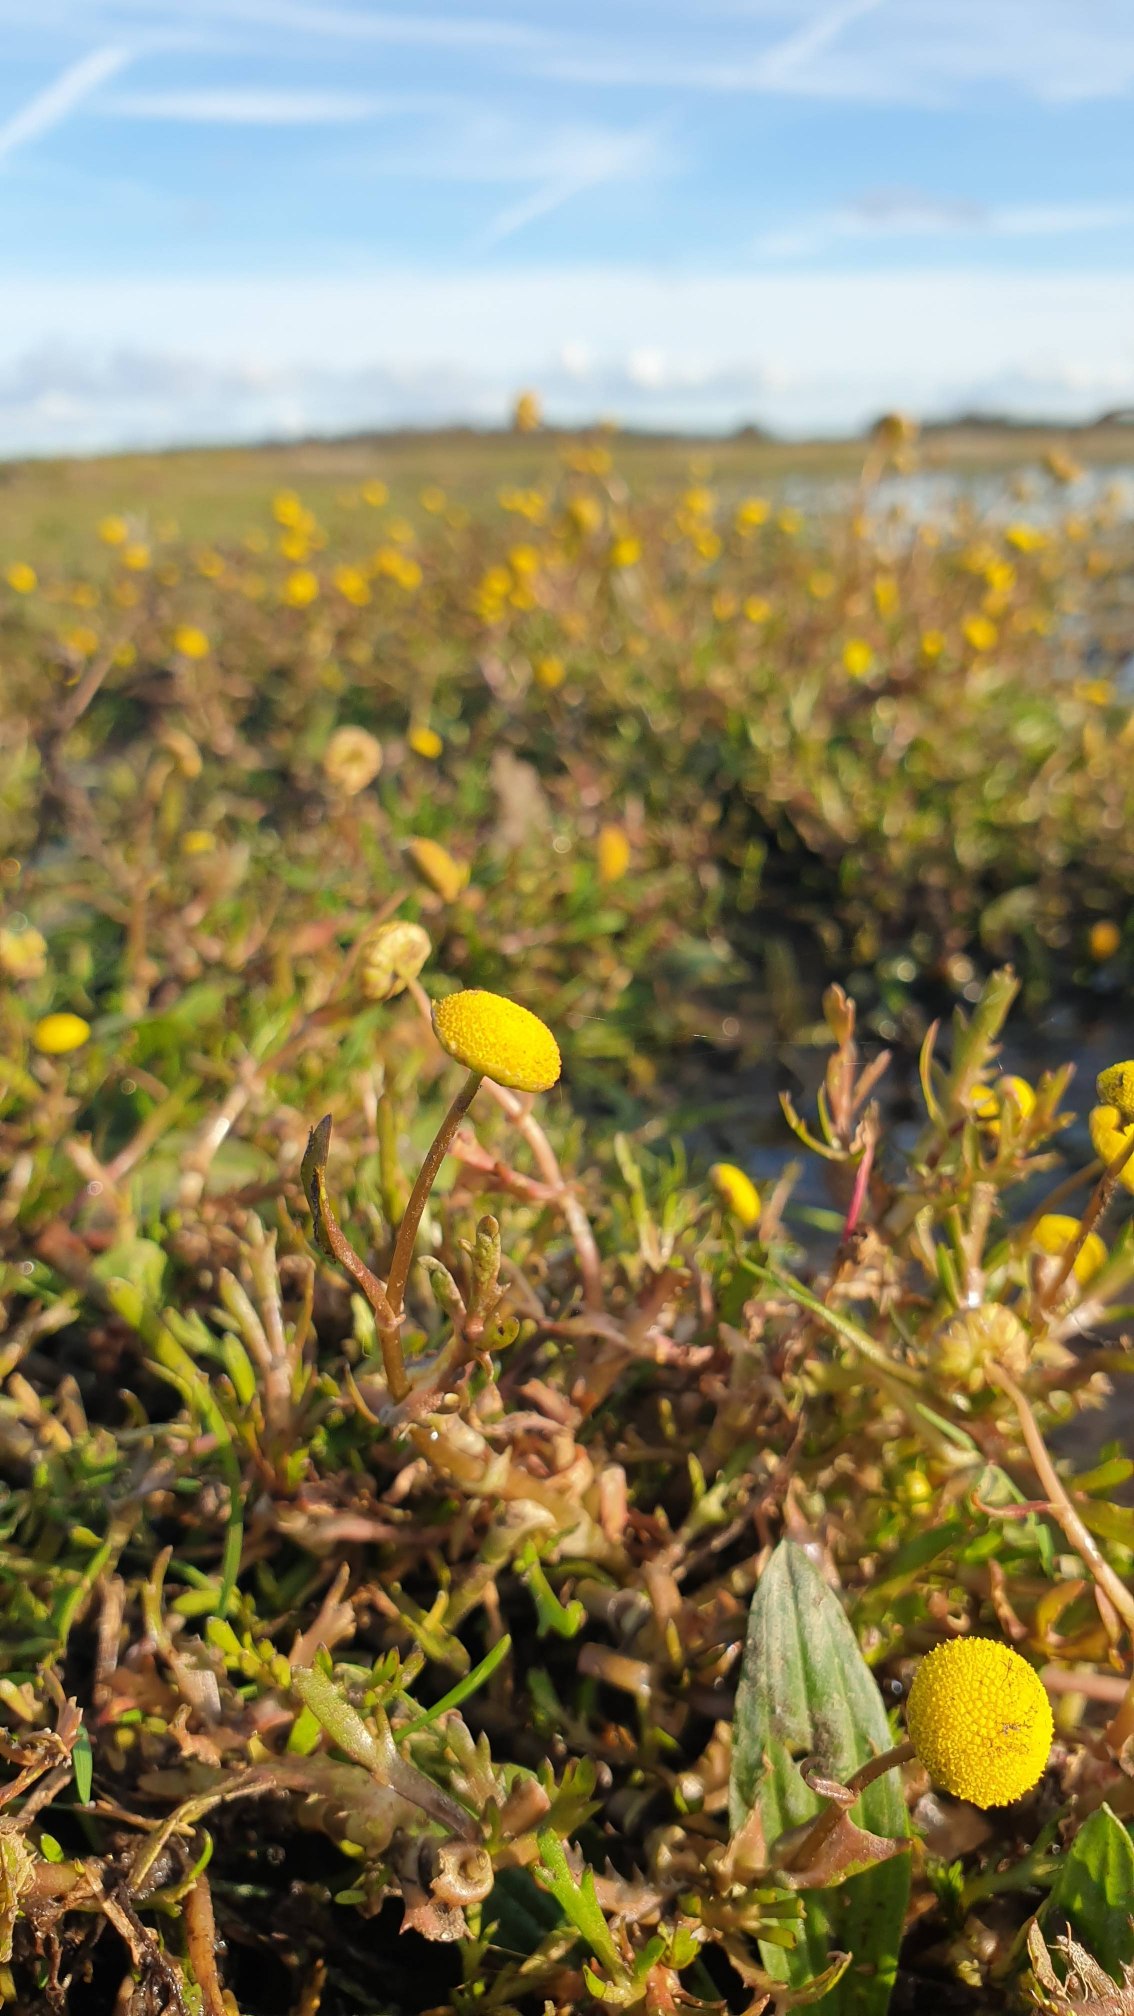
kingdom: Plantae
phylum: Tracheophyta
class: Magnoliopsida
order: Asterales
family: Asteraceae
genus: Cotula
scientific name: Cotula coronopifolia
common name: Firkløft
